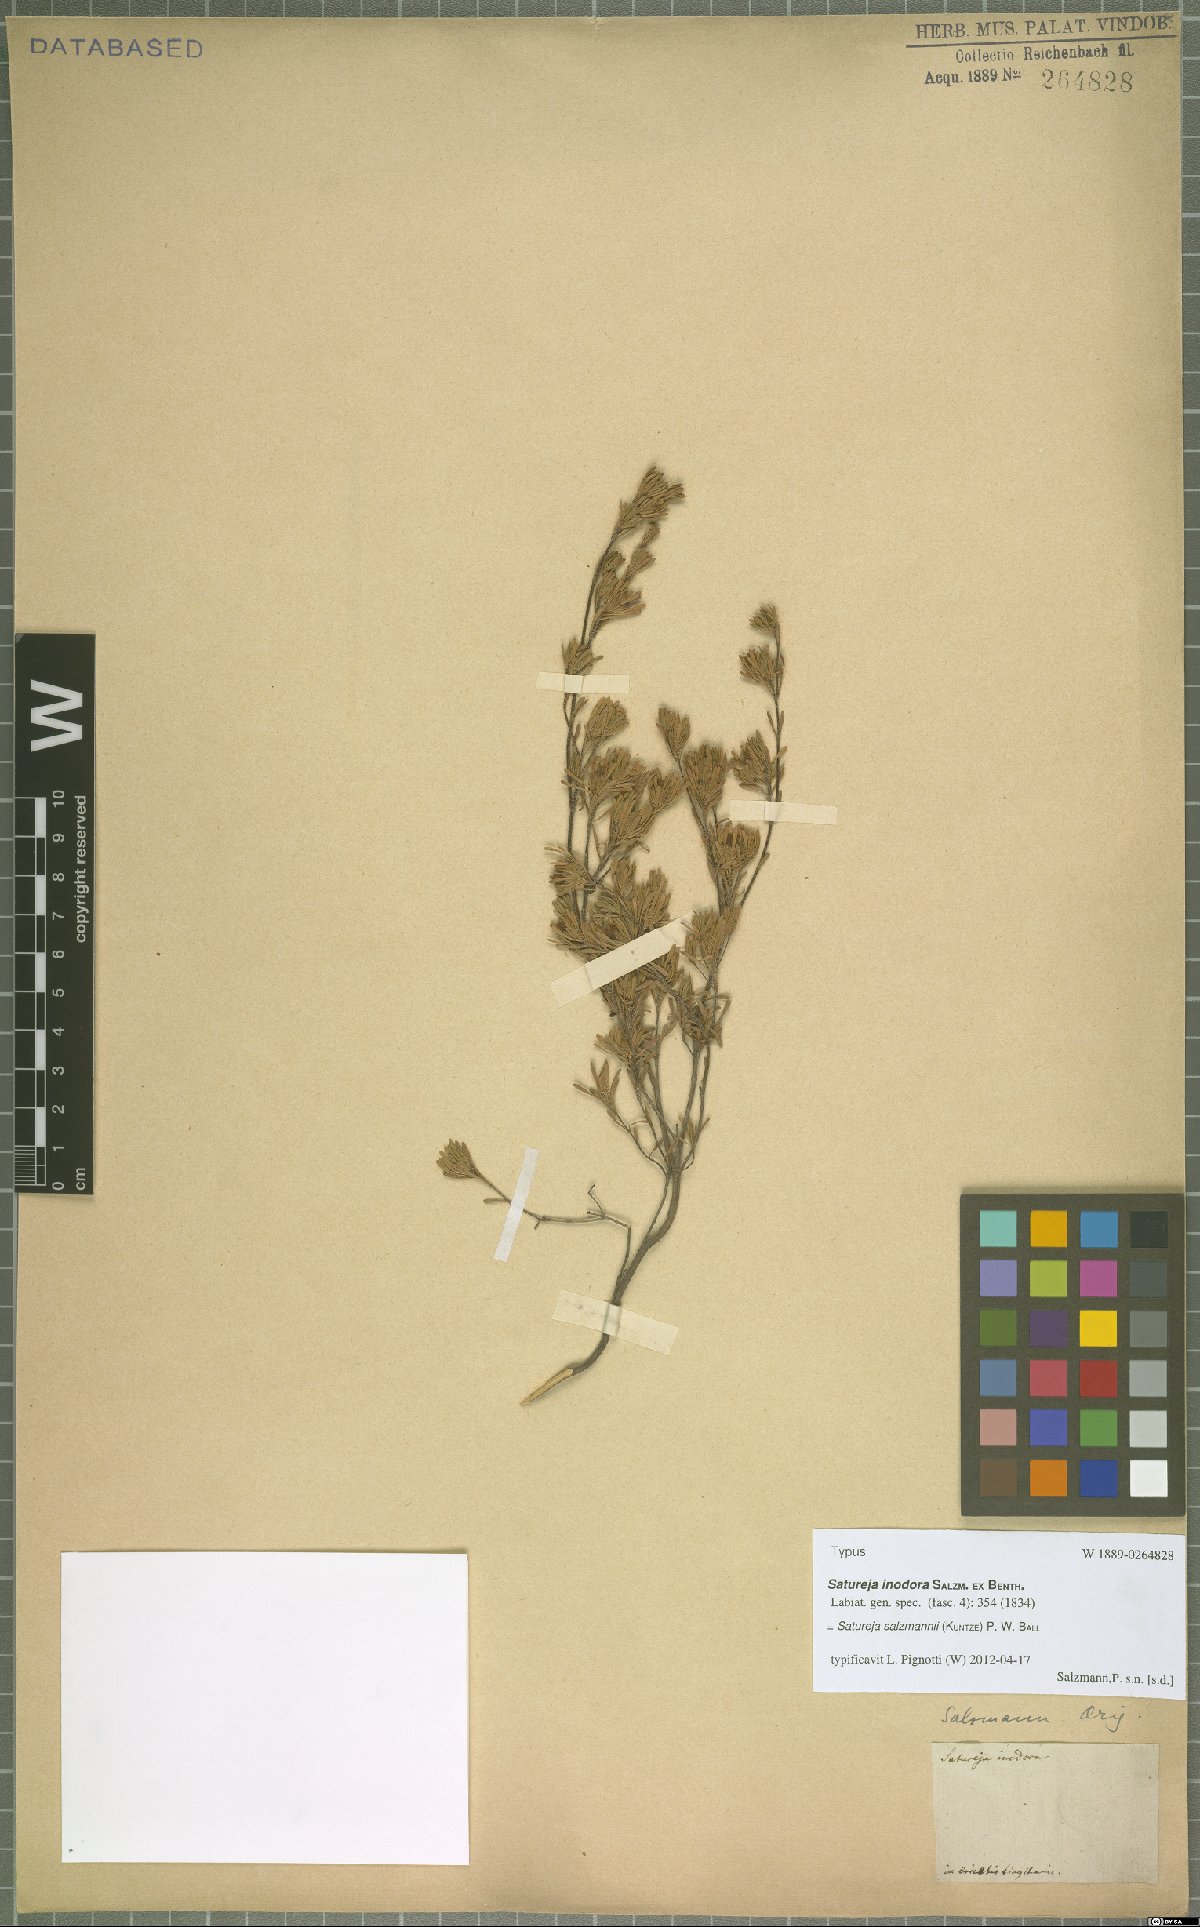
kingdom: Plantae
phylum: Tracheophyta
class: Magnoliopsida
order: Lamiales
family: Lamiaceae
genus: Satureja
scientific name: Satureja salzmannii
